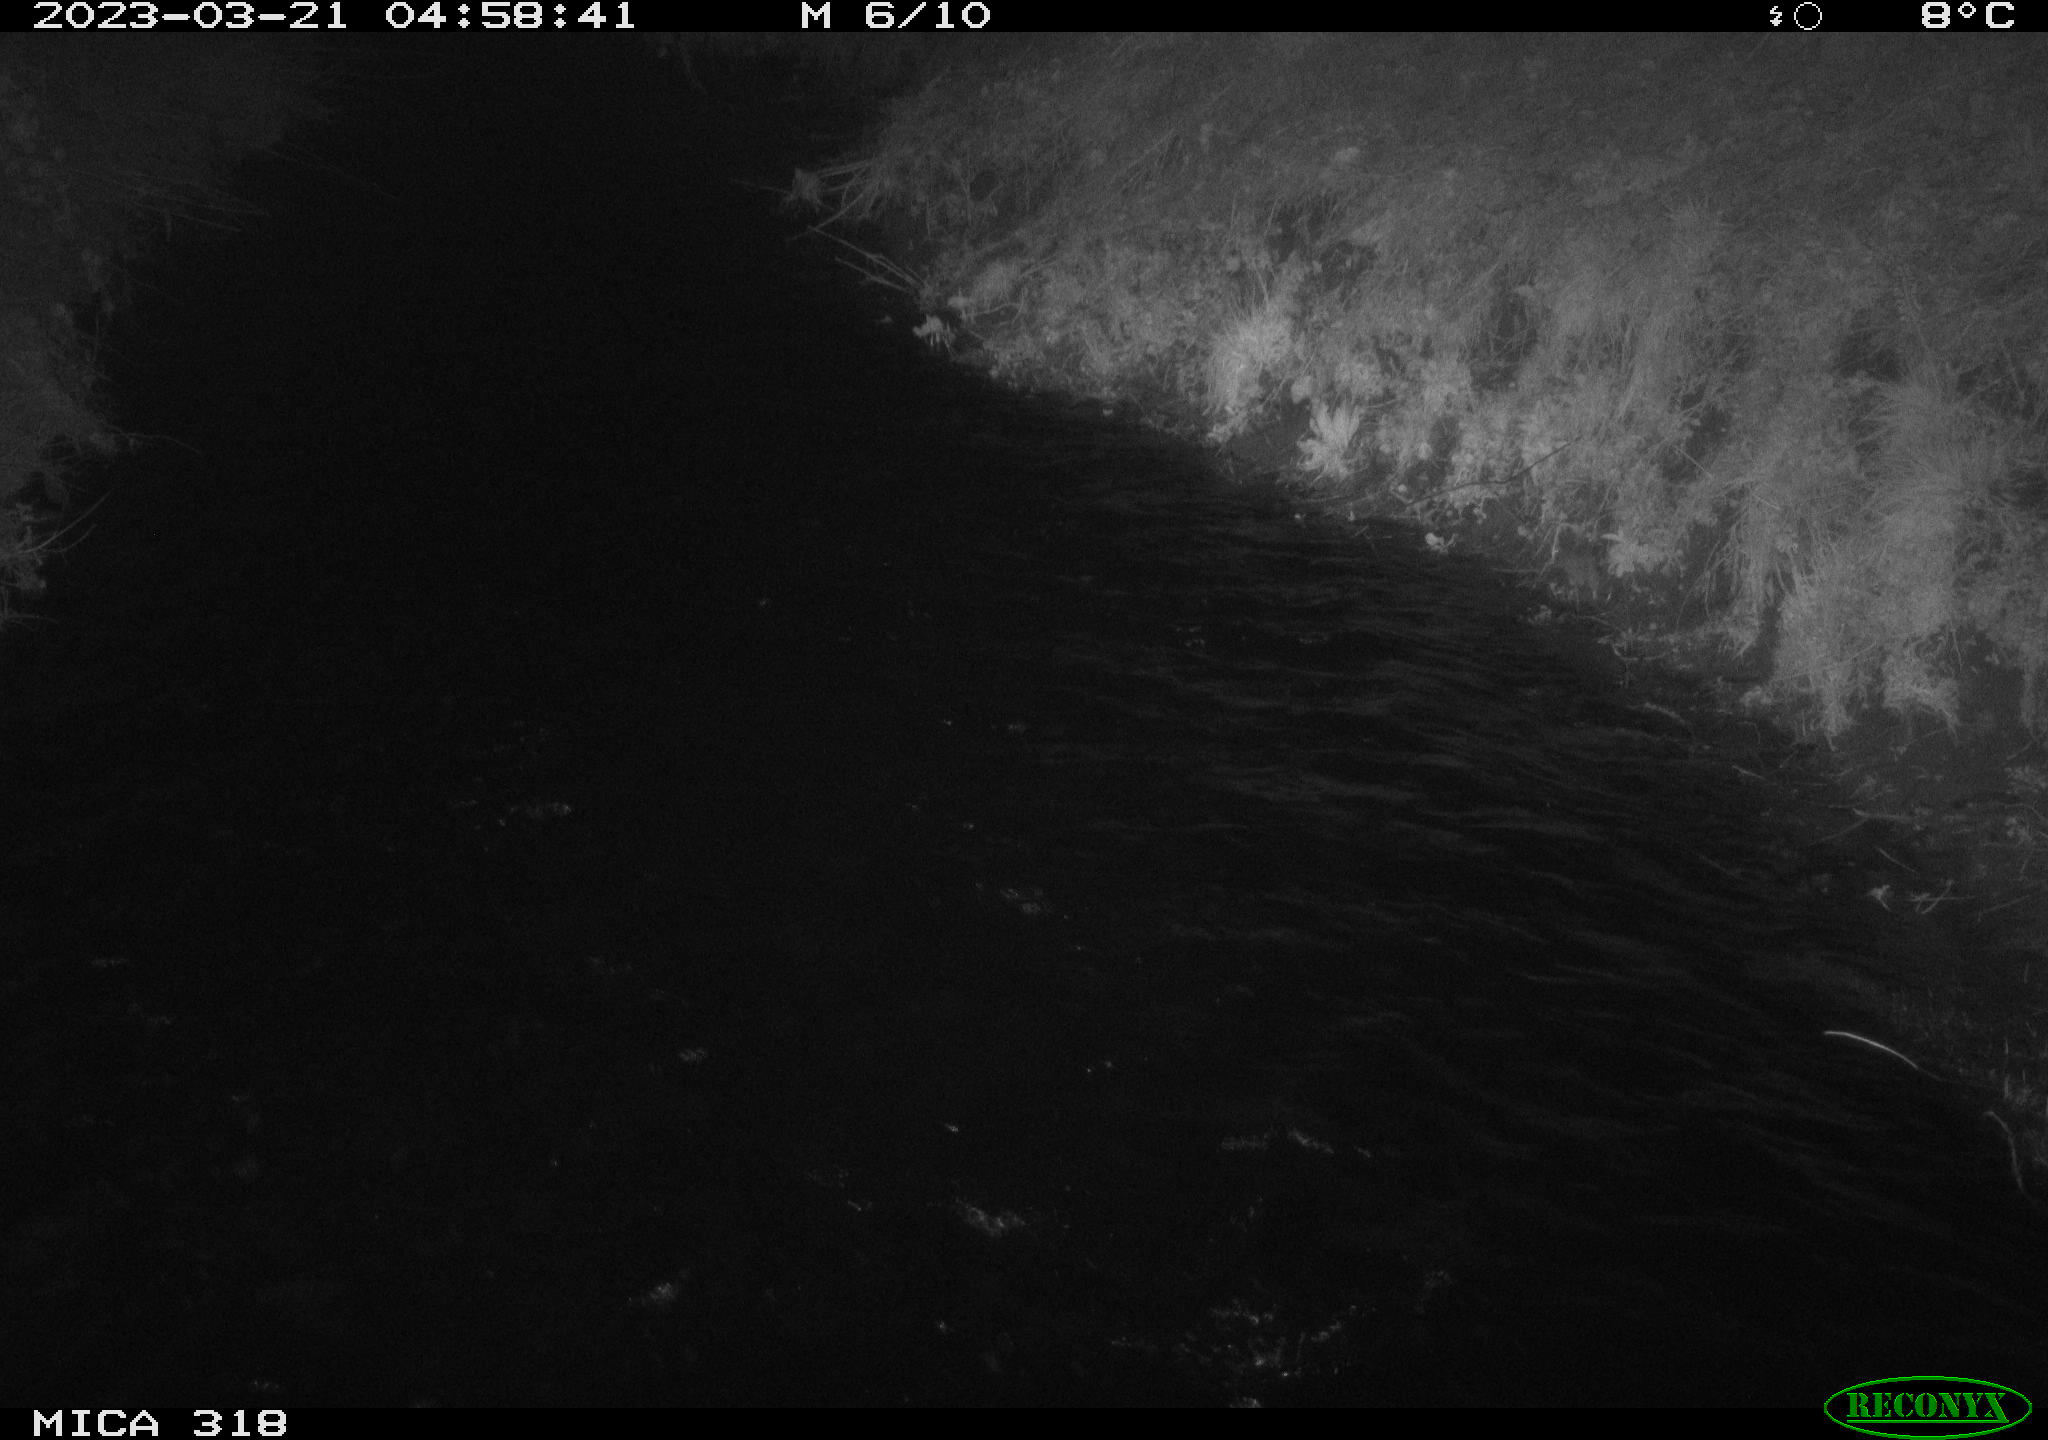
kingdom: Animalia
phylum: Chordata
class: Mammalia
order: Rodentia
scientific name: Rodentia
